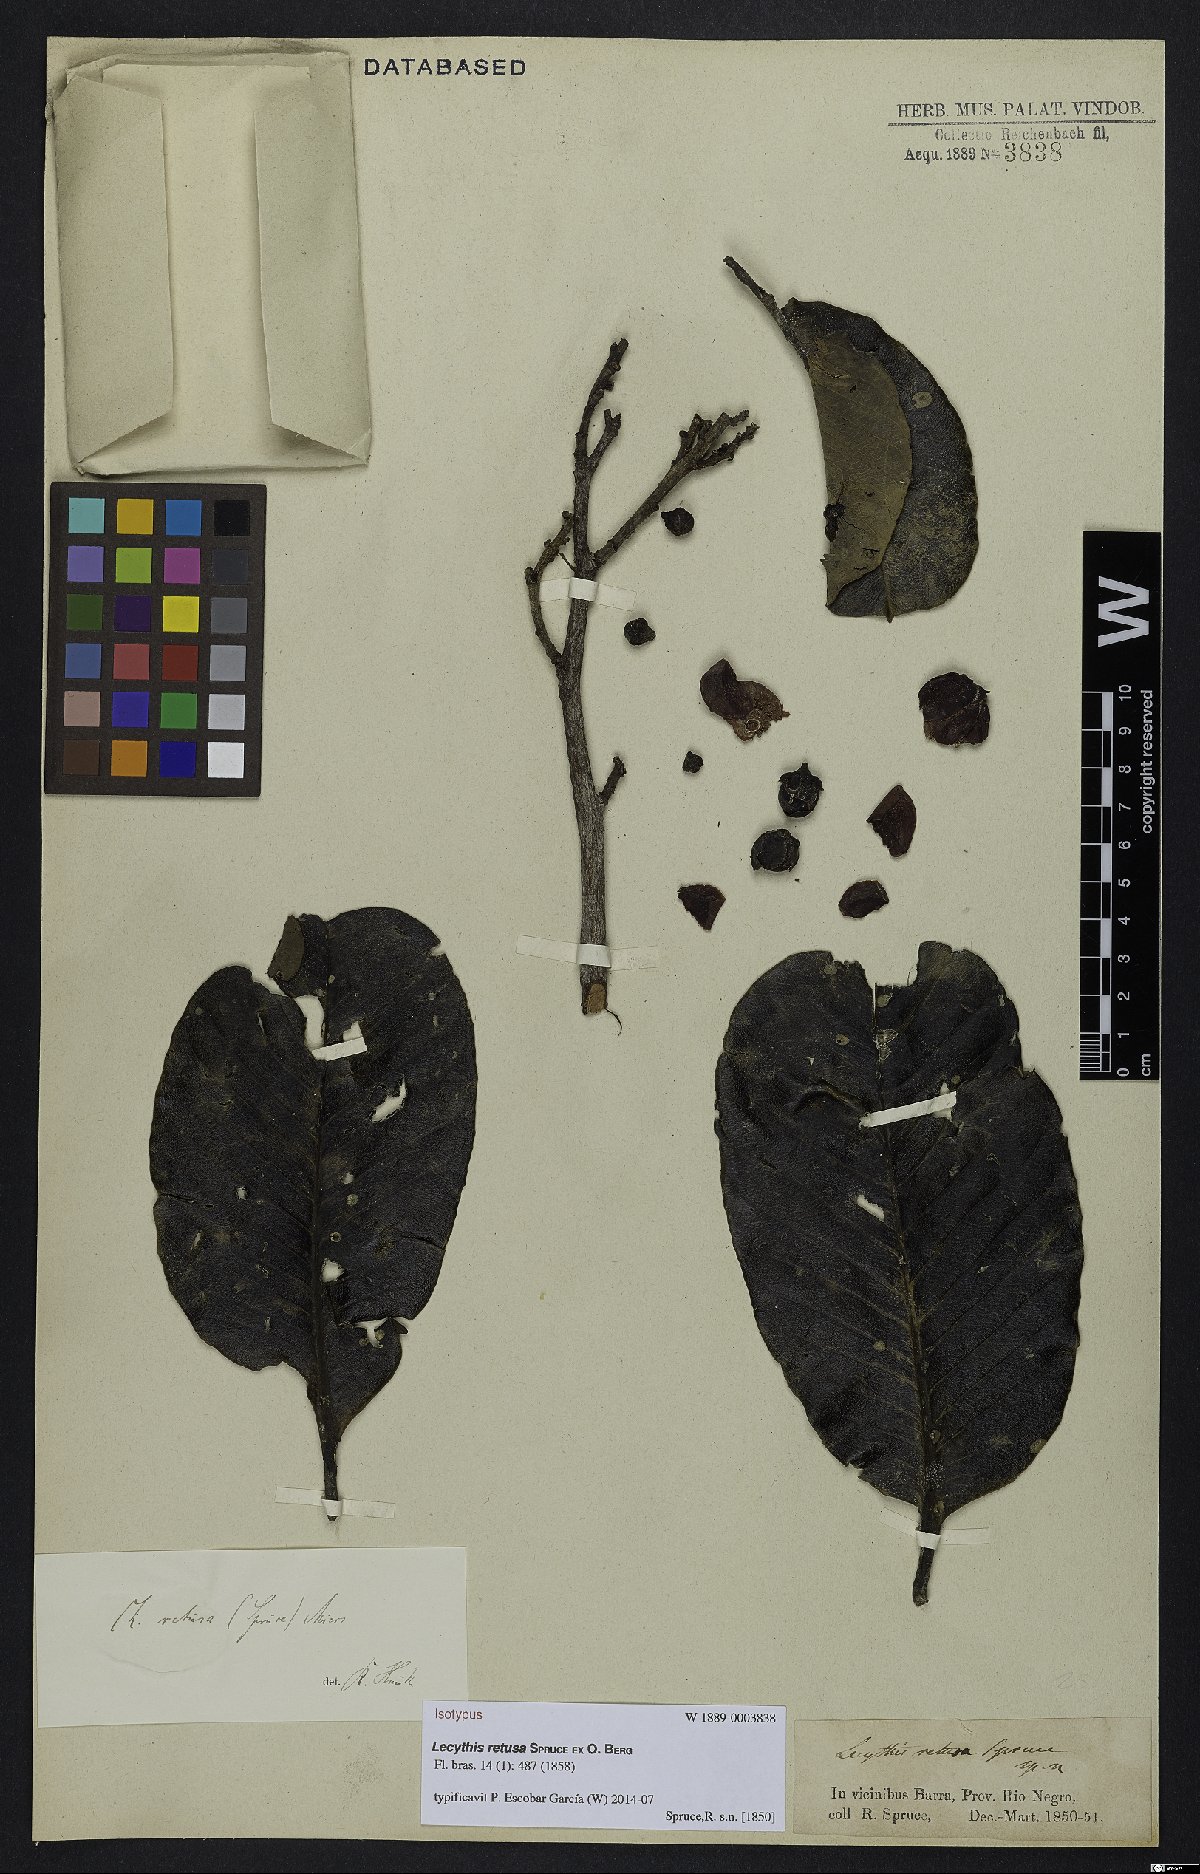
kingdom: Plantae
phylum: Tracheophyta
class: Magnoliopsida
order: Ericales
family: Lecythidaceae
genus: Lecythis
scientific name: Lecythis retusa
